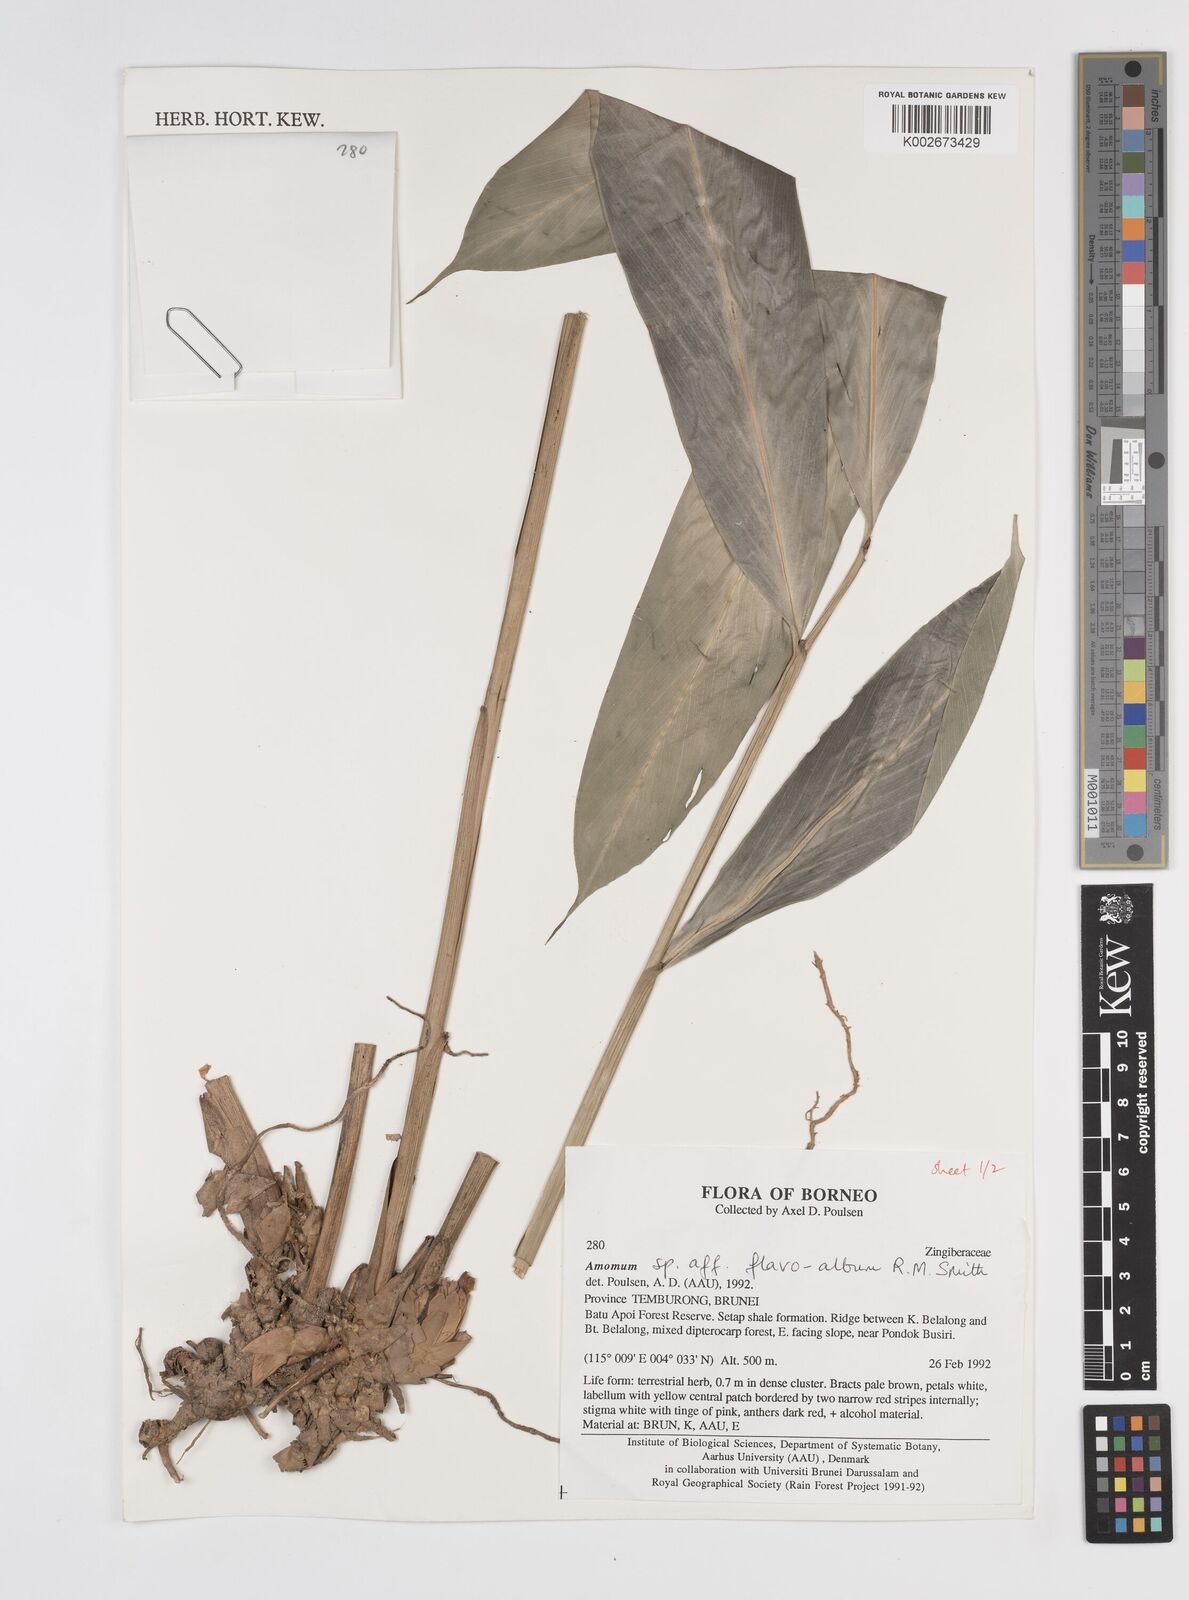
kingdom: Plantae
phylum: Tracheophyta
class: Liliopsida
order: Zingiberales
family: Zingiberaceae
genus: Sundamomum
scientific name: Sundamomum flavoalbum
